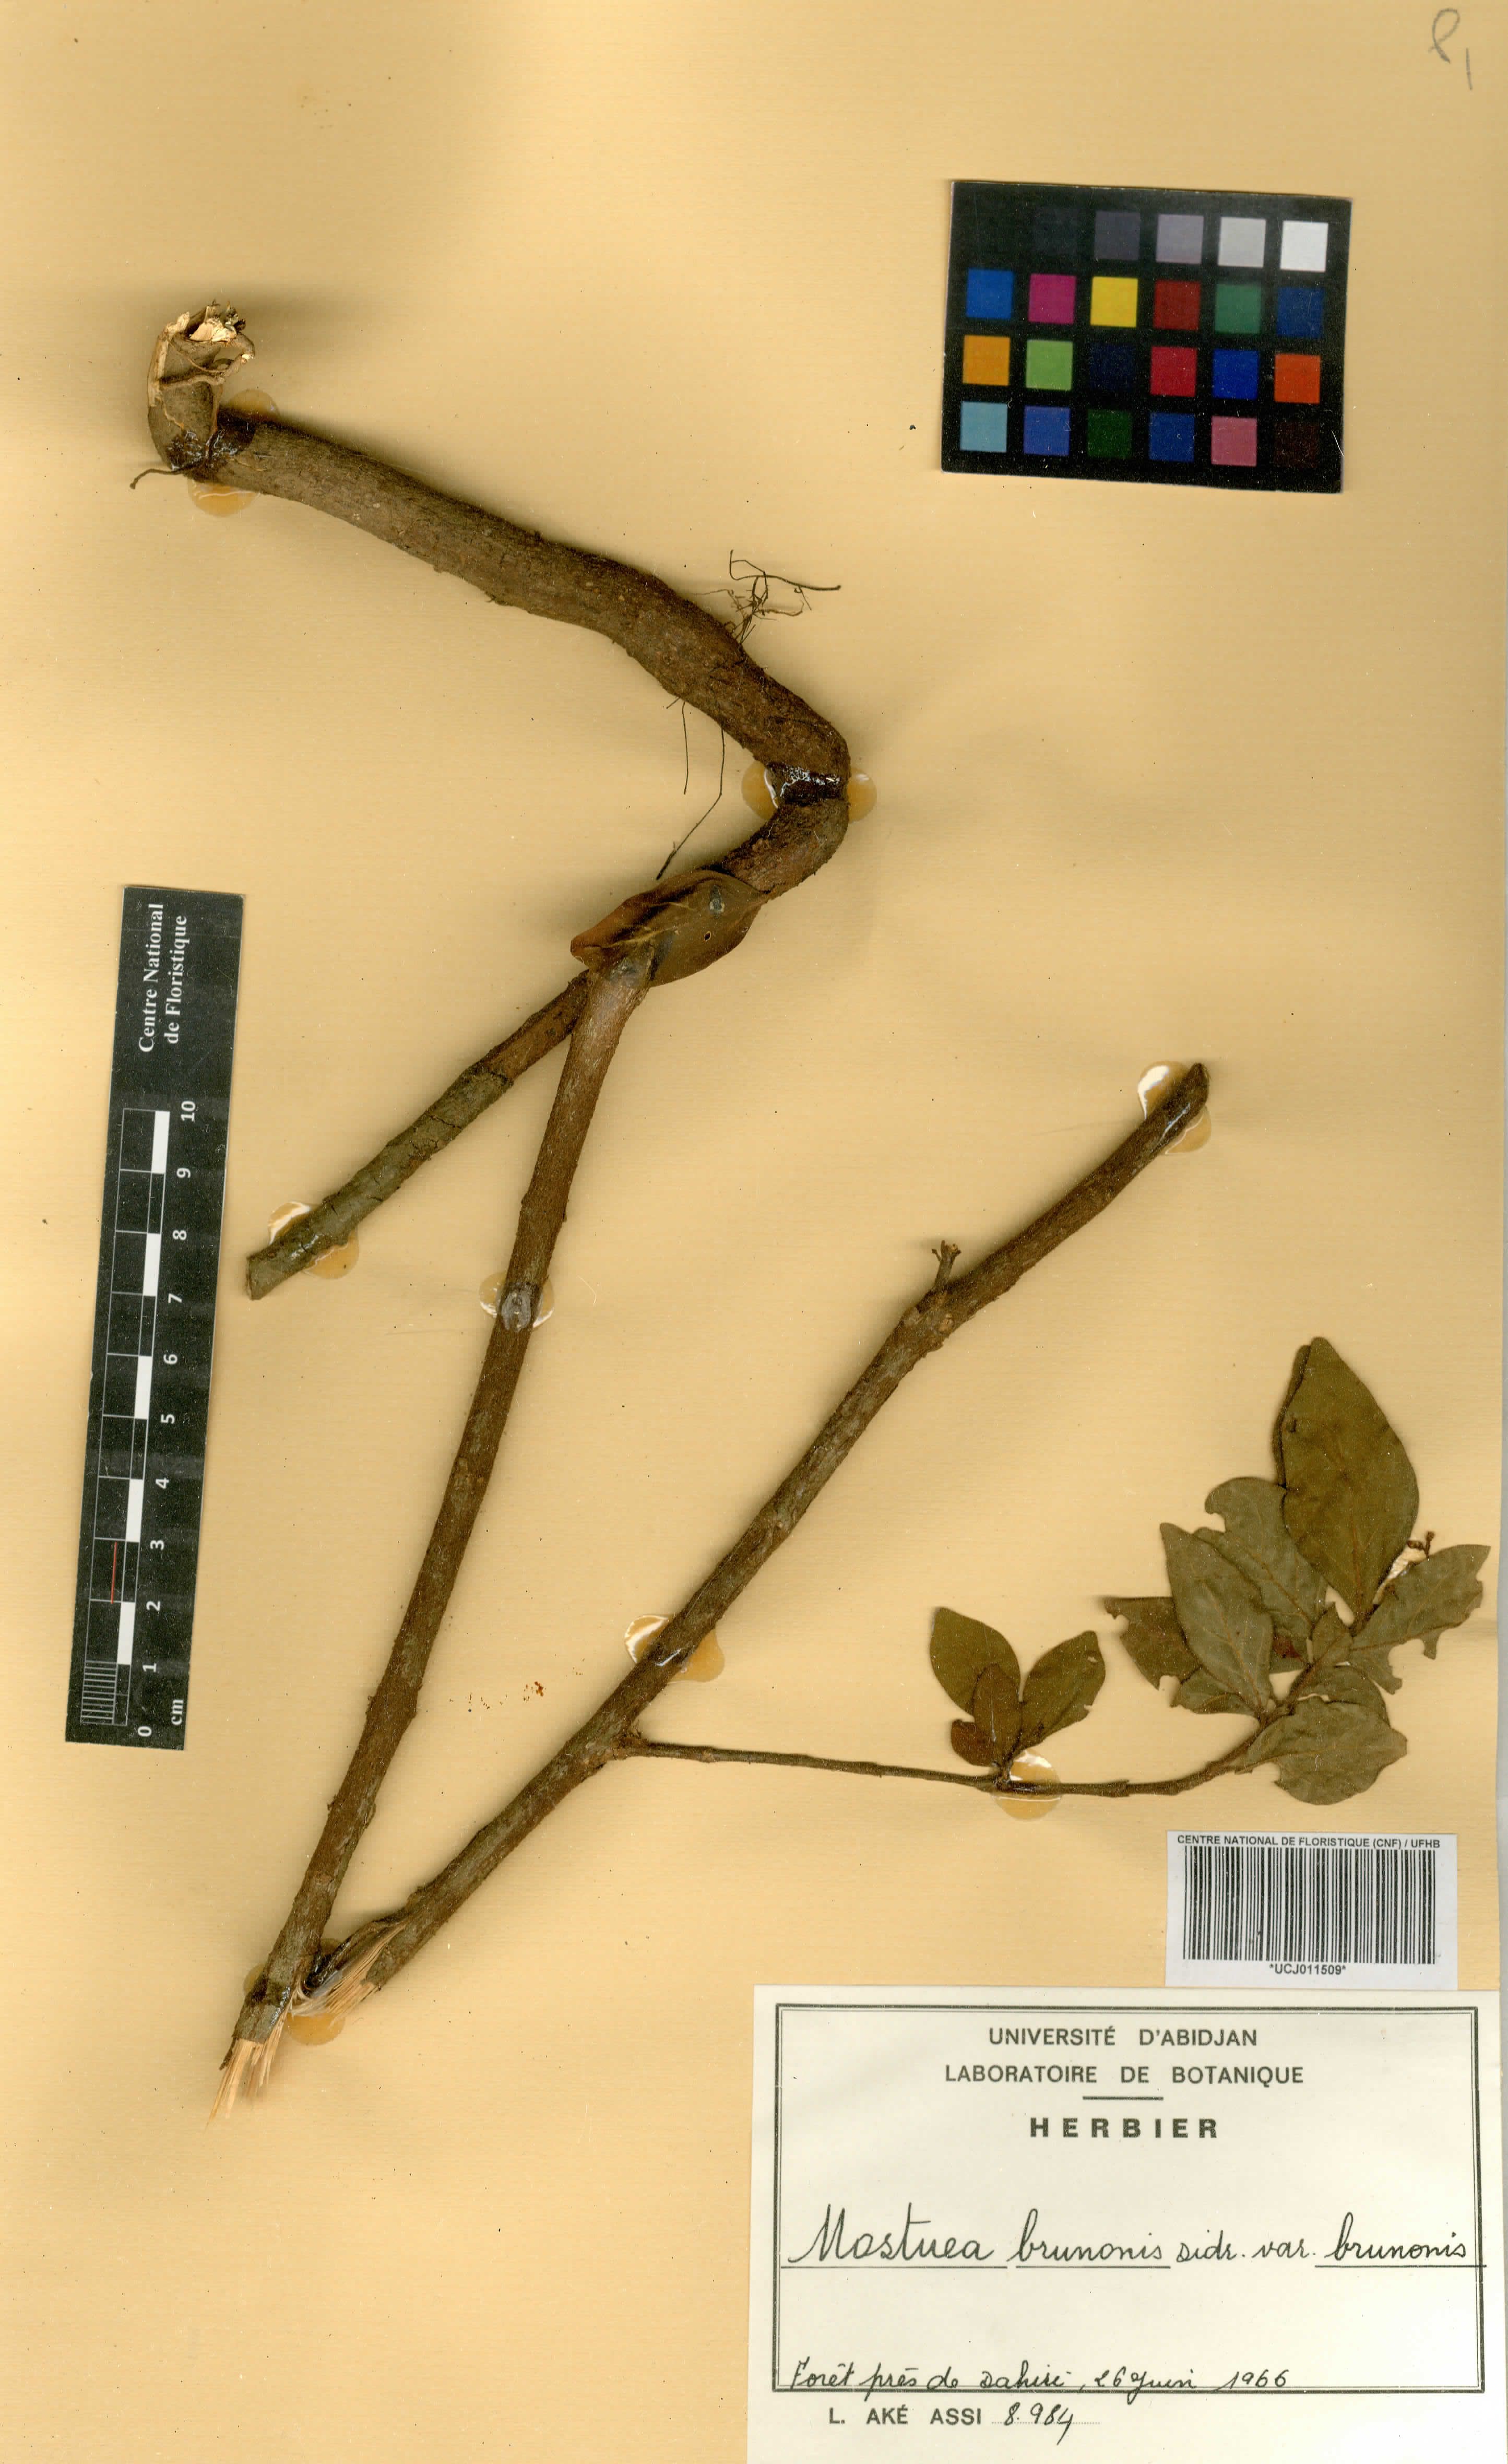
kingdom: Plantae
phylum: Tracheophyta
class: Magnoliopsida
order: Gentianales
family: Gelsemiaceae
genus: Mostuea
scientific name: Mostuea brunonis
